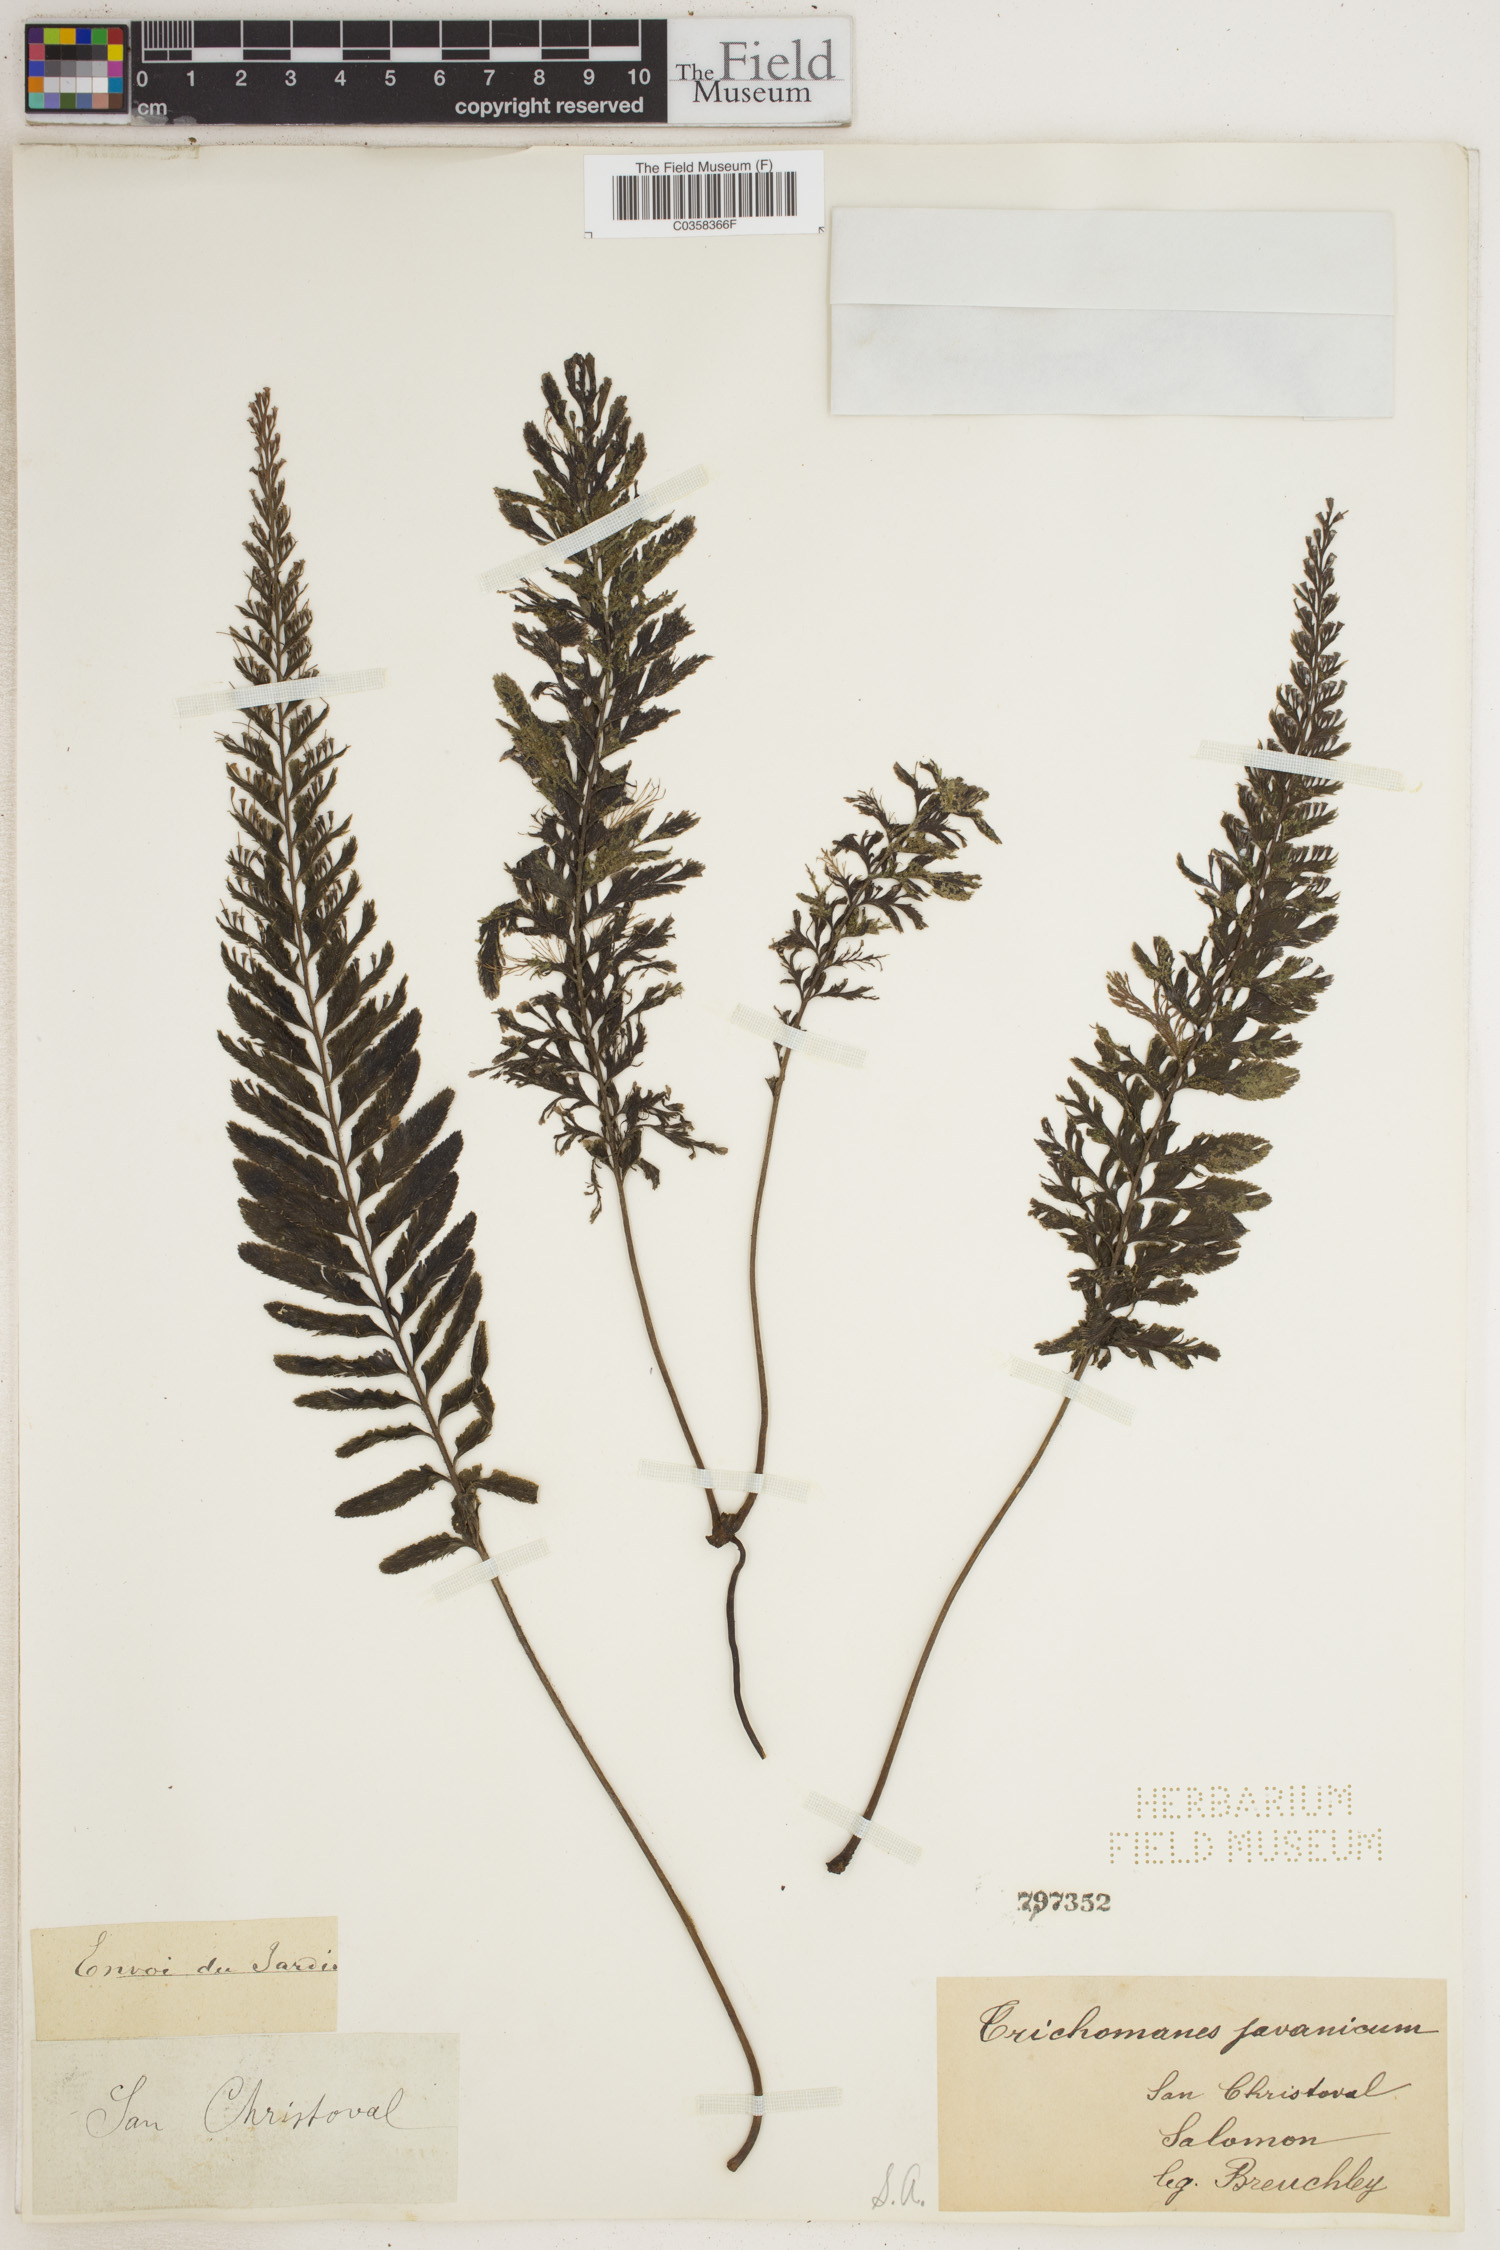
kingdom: Plantae
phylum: Tracheophyta
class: Polypodiopsida
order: Hymenophyllales
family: Hymenophyllaceae
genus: Cephalomanes
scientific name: Cephalomanes javanicum
